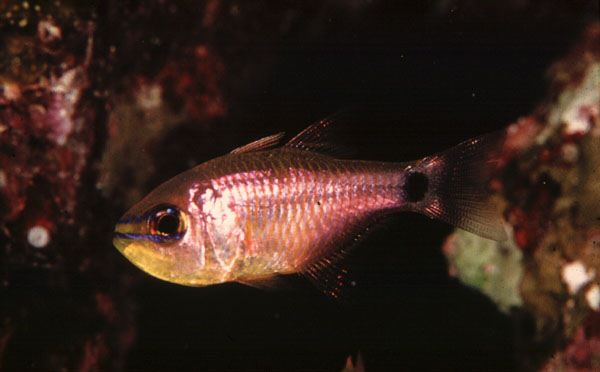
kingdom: Animalia
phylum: Chordata
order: Perciformes
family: Apogonidae
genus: Taeniamia
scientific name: Taeniamia fucata
